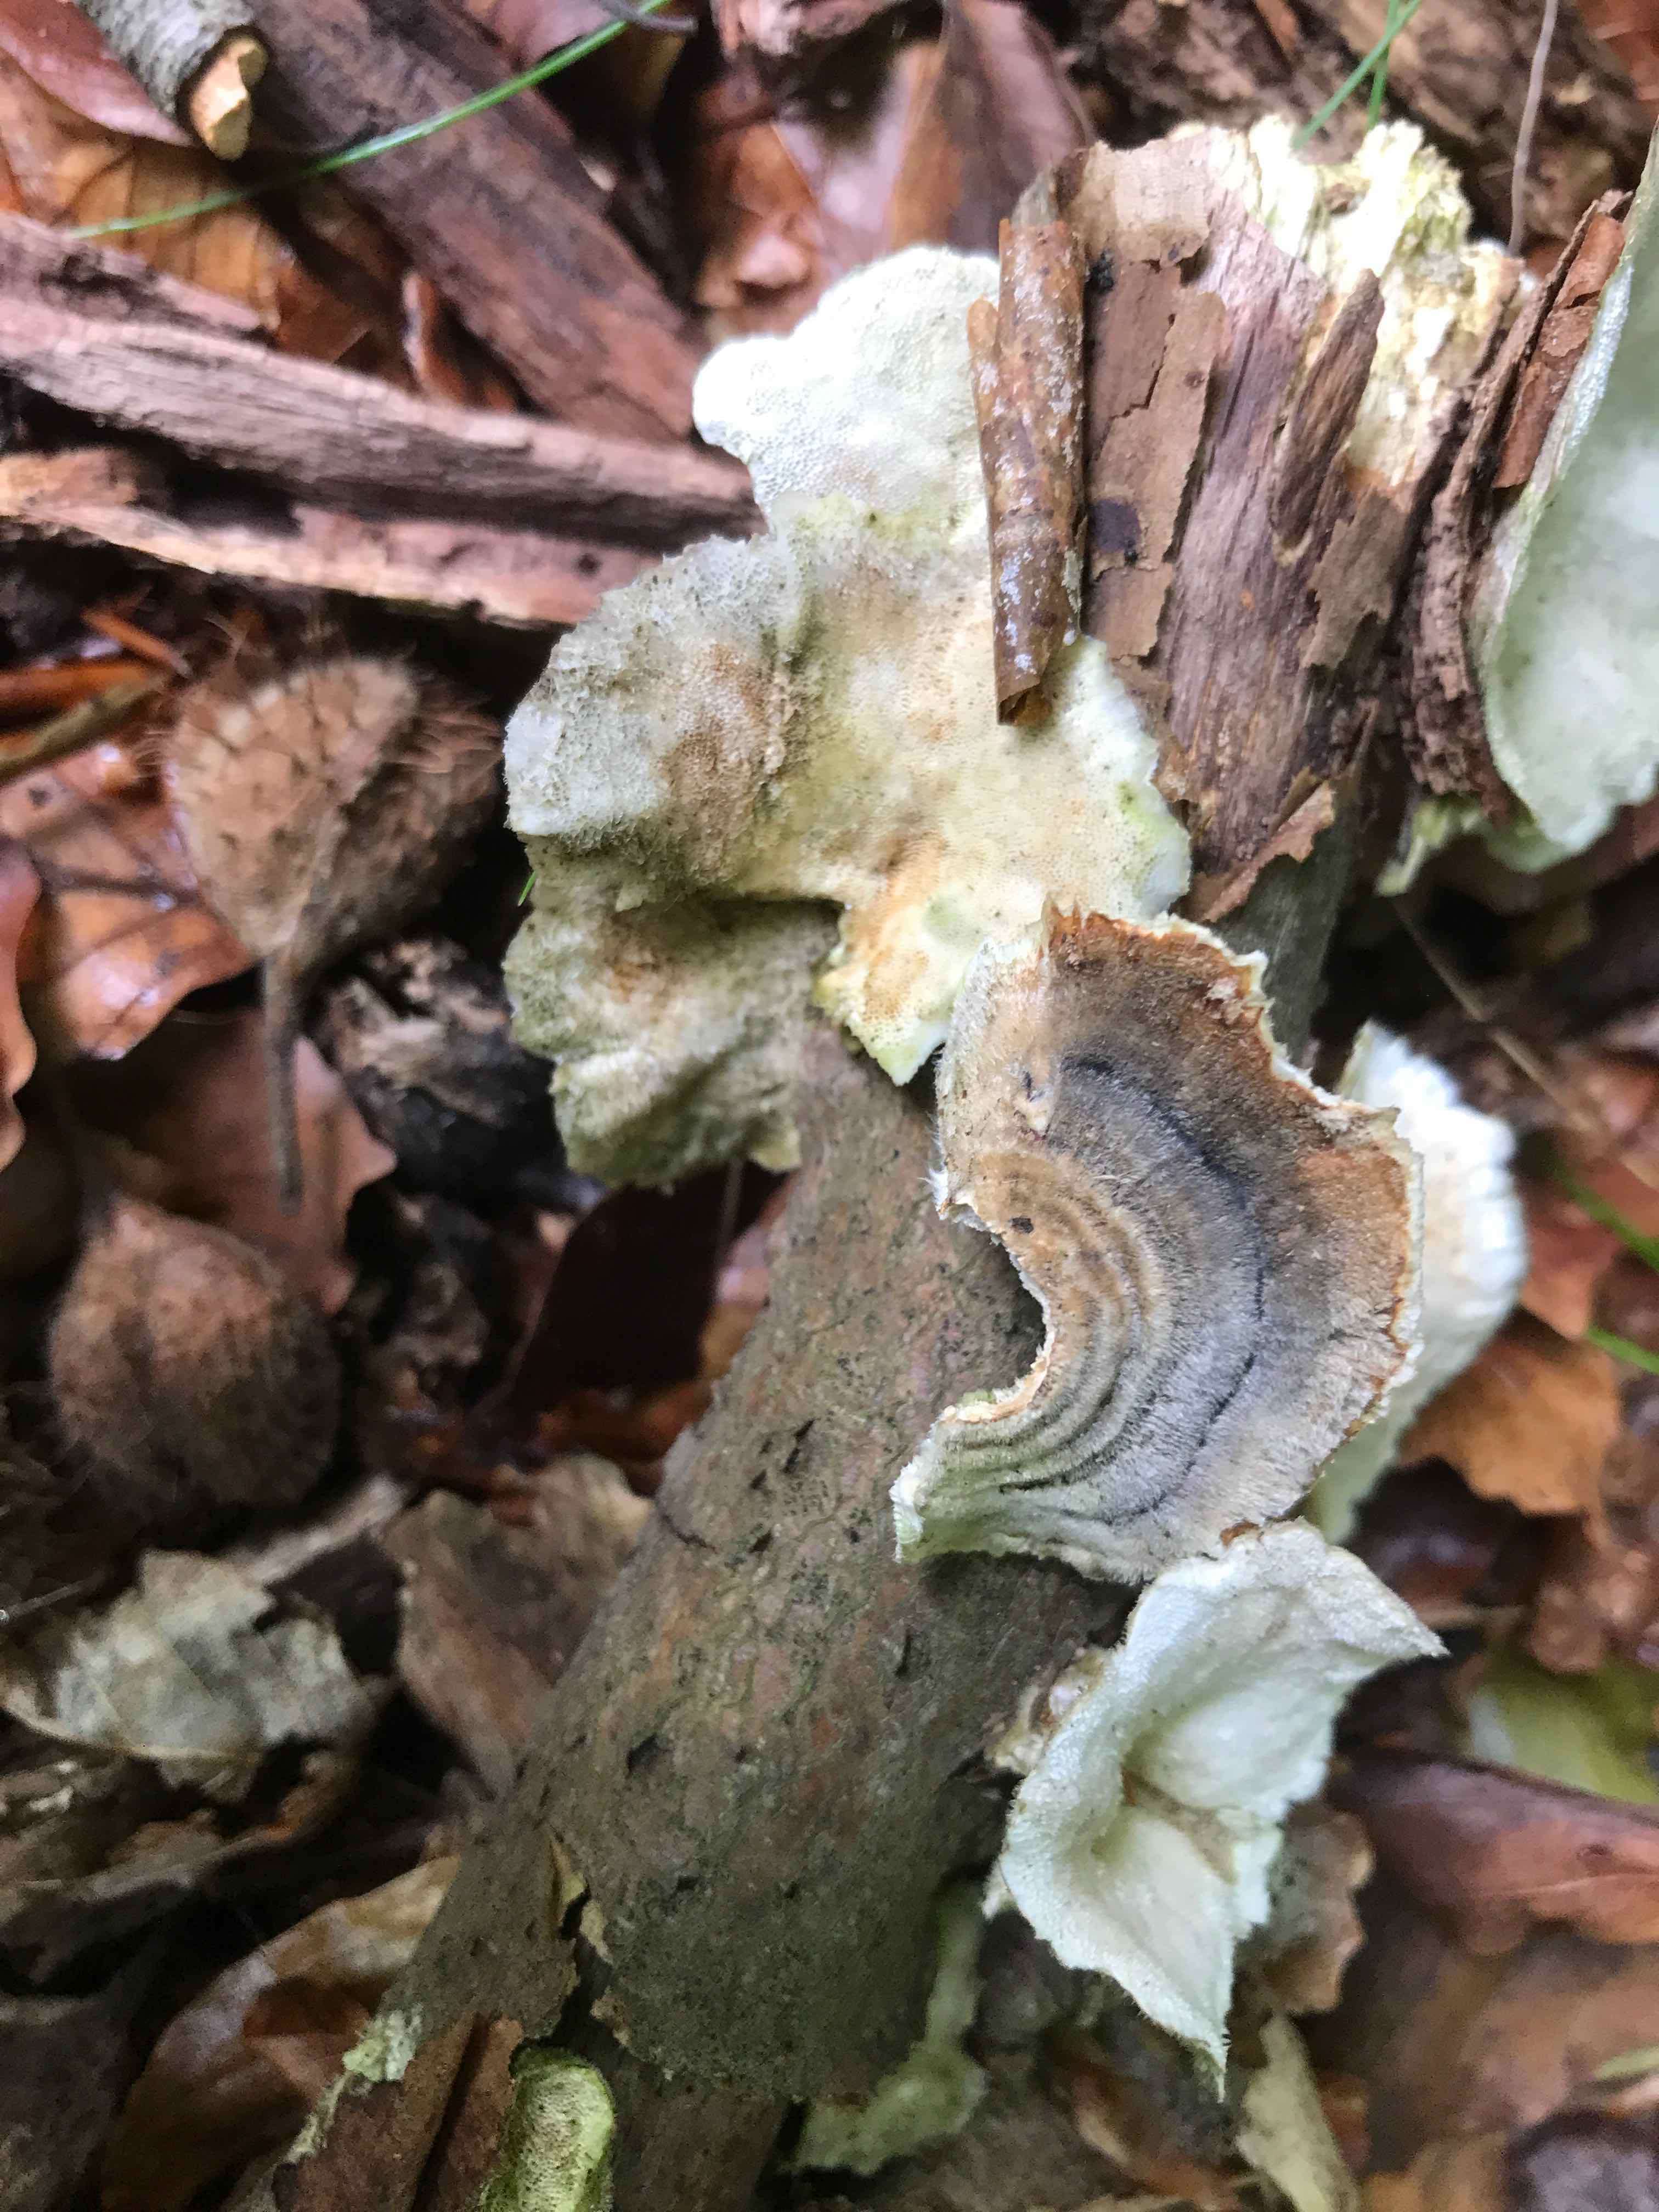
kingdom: Fungi
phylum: Basidiomycota
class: Agaricomycetes
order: Polyporales
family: Polyporaceae
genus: Trametes
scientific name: Trametes versicolor
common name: broget læderporesvamp
